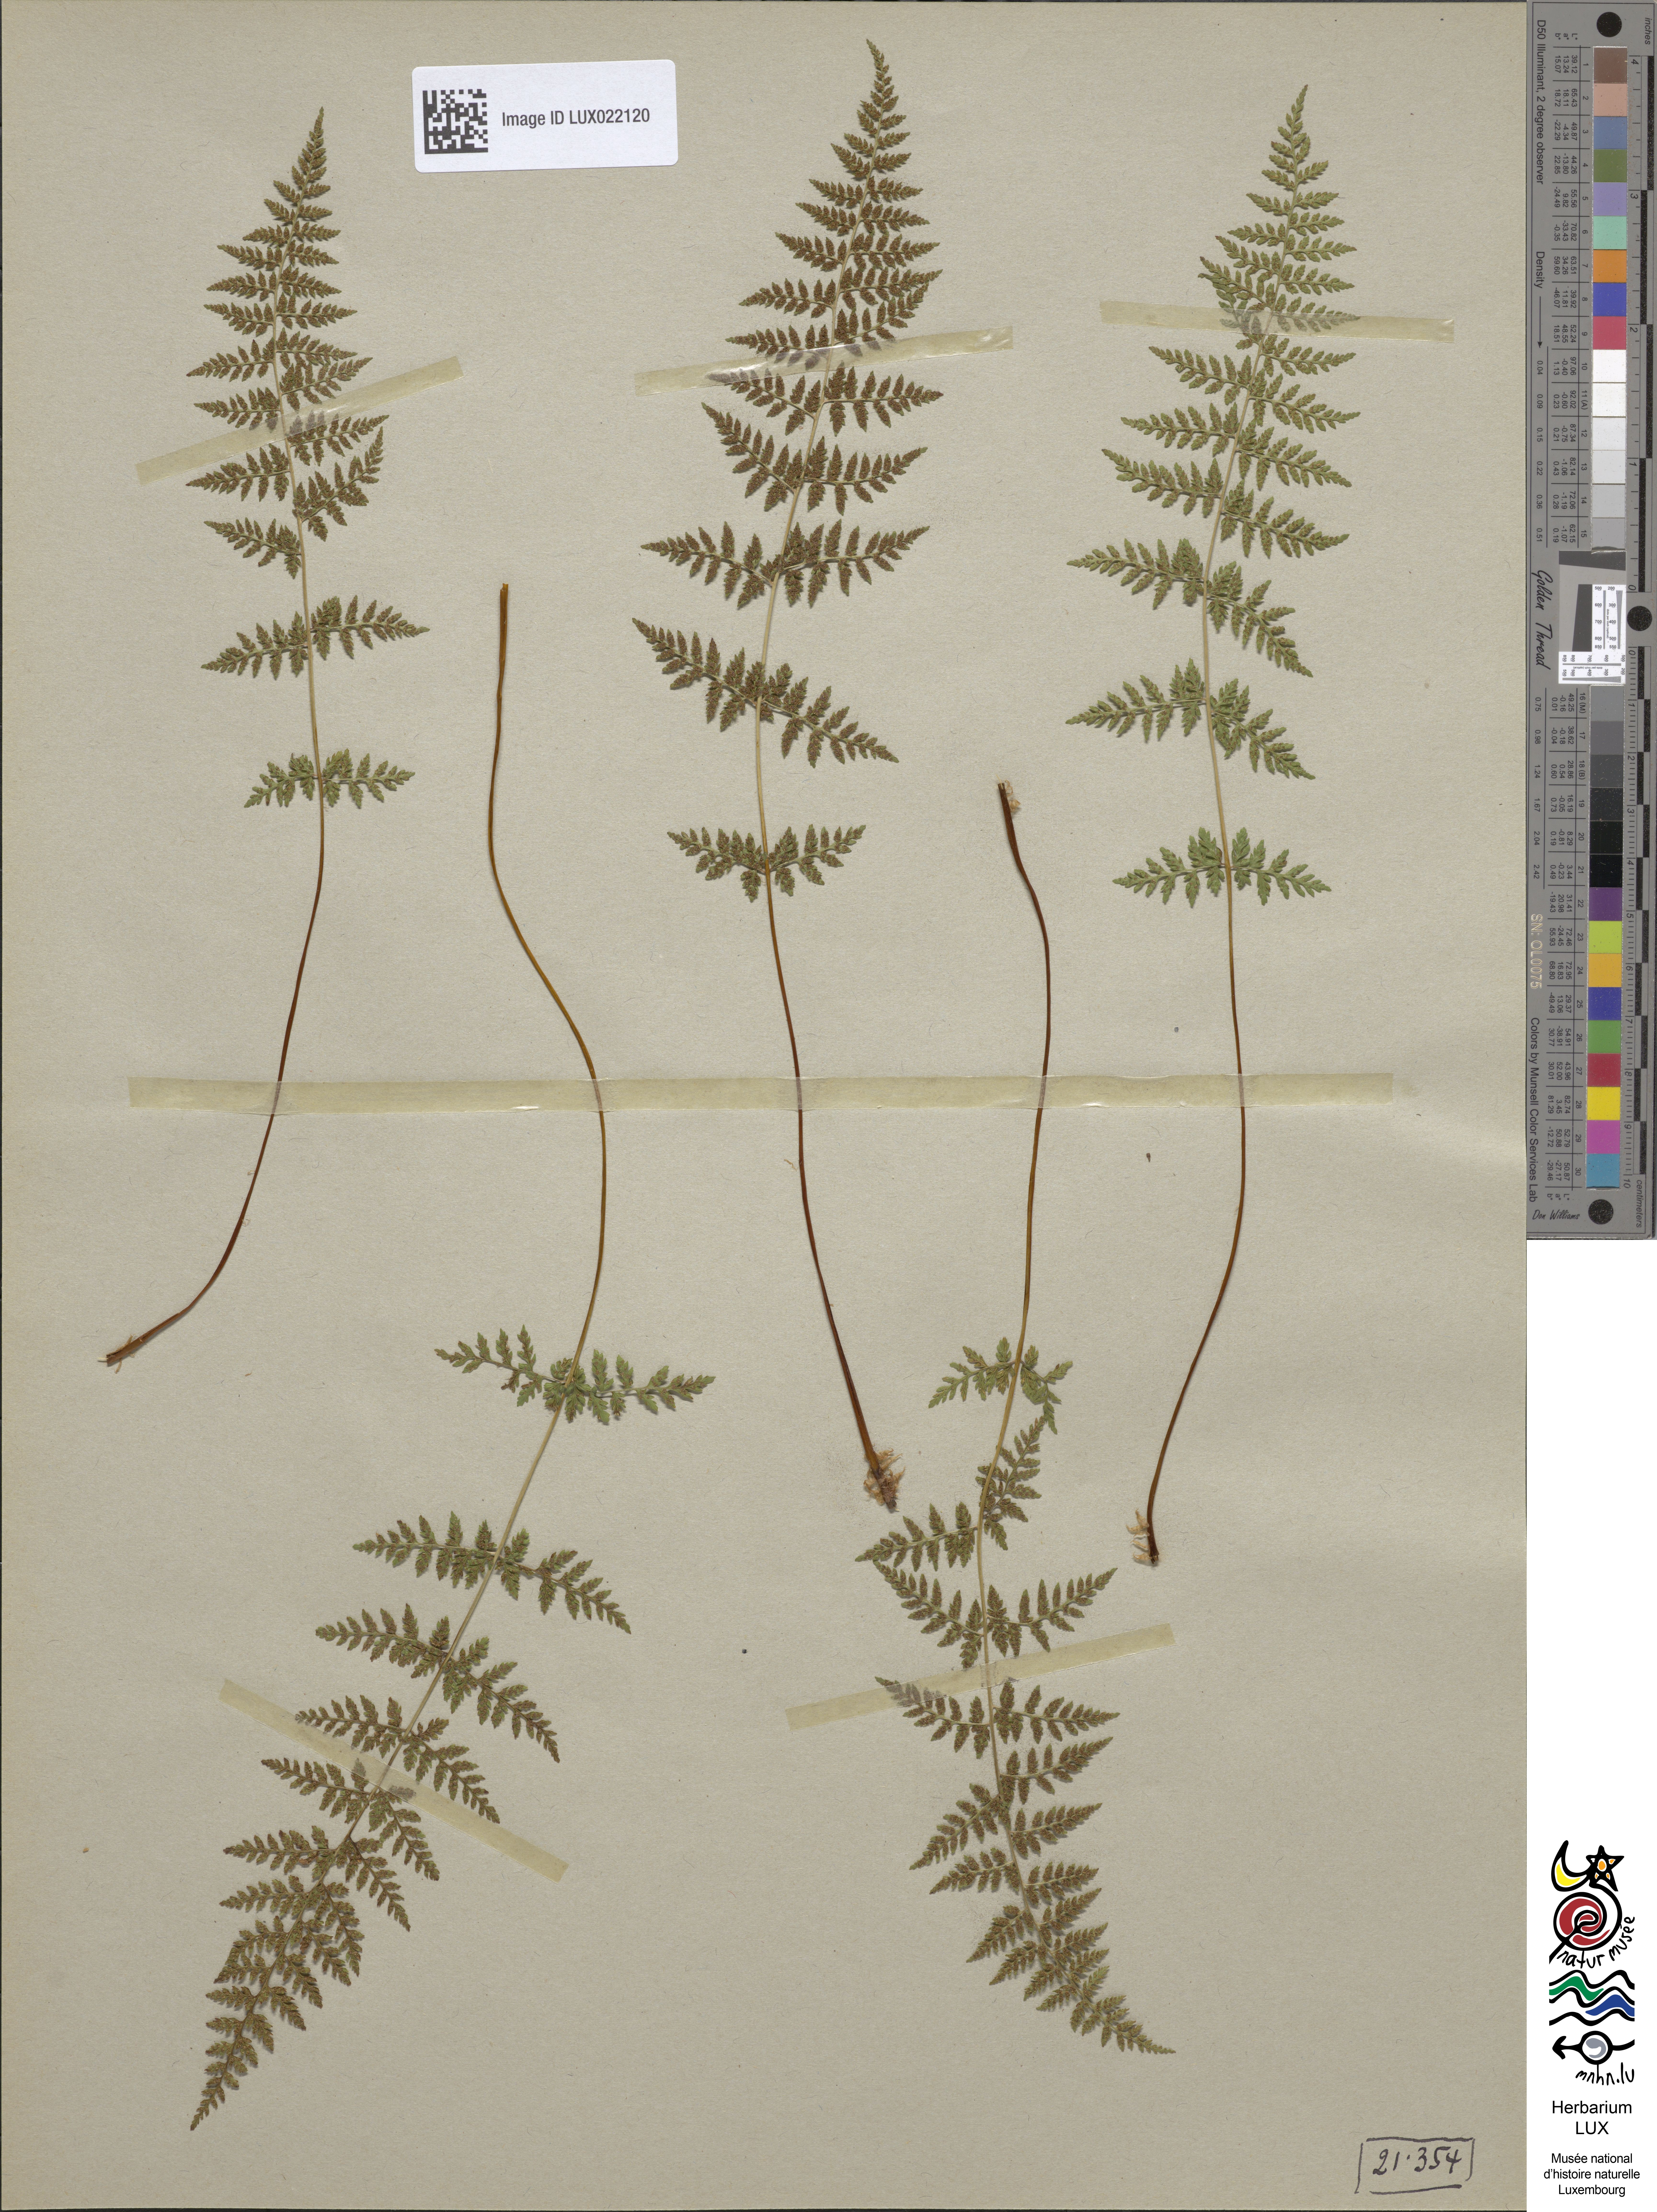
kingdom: Plantae
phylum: Tracheophyta
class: Polypodiopsida
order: Polypodiales
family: Cystopteridaceae
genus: Cystopteris
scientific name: Cystopteris fragilis
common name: Brittle bladder fern
